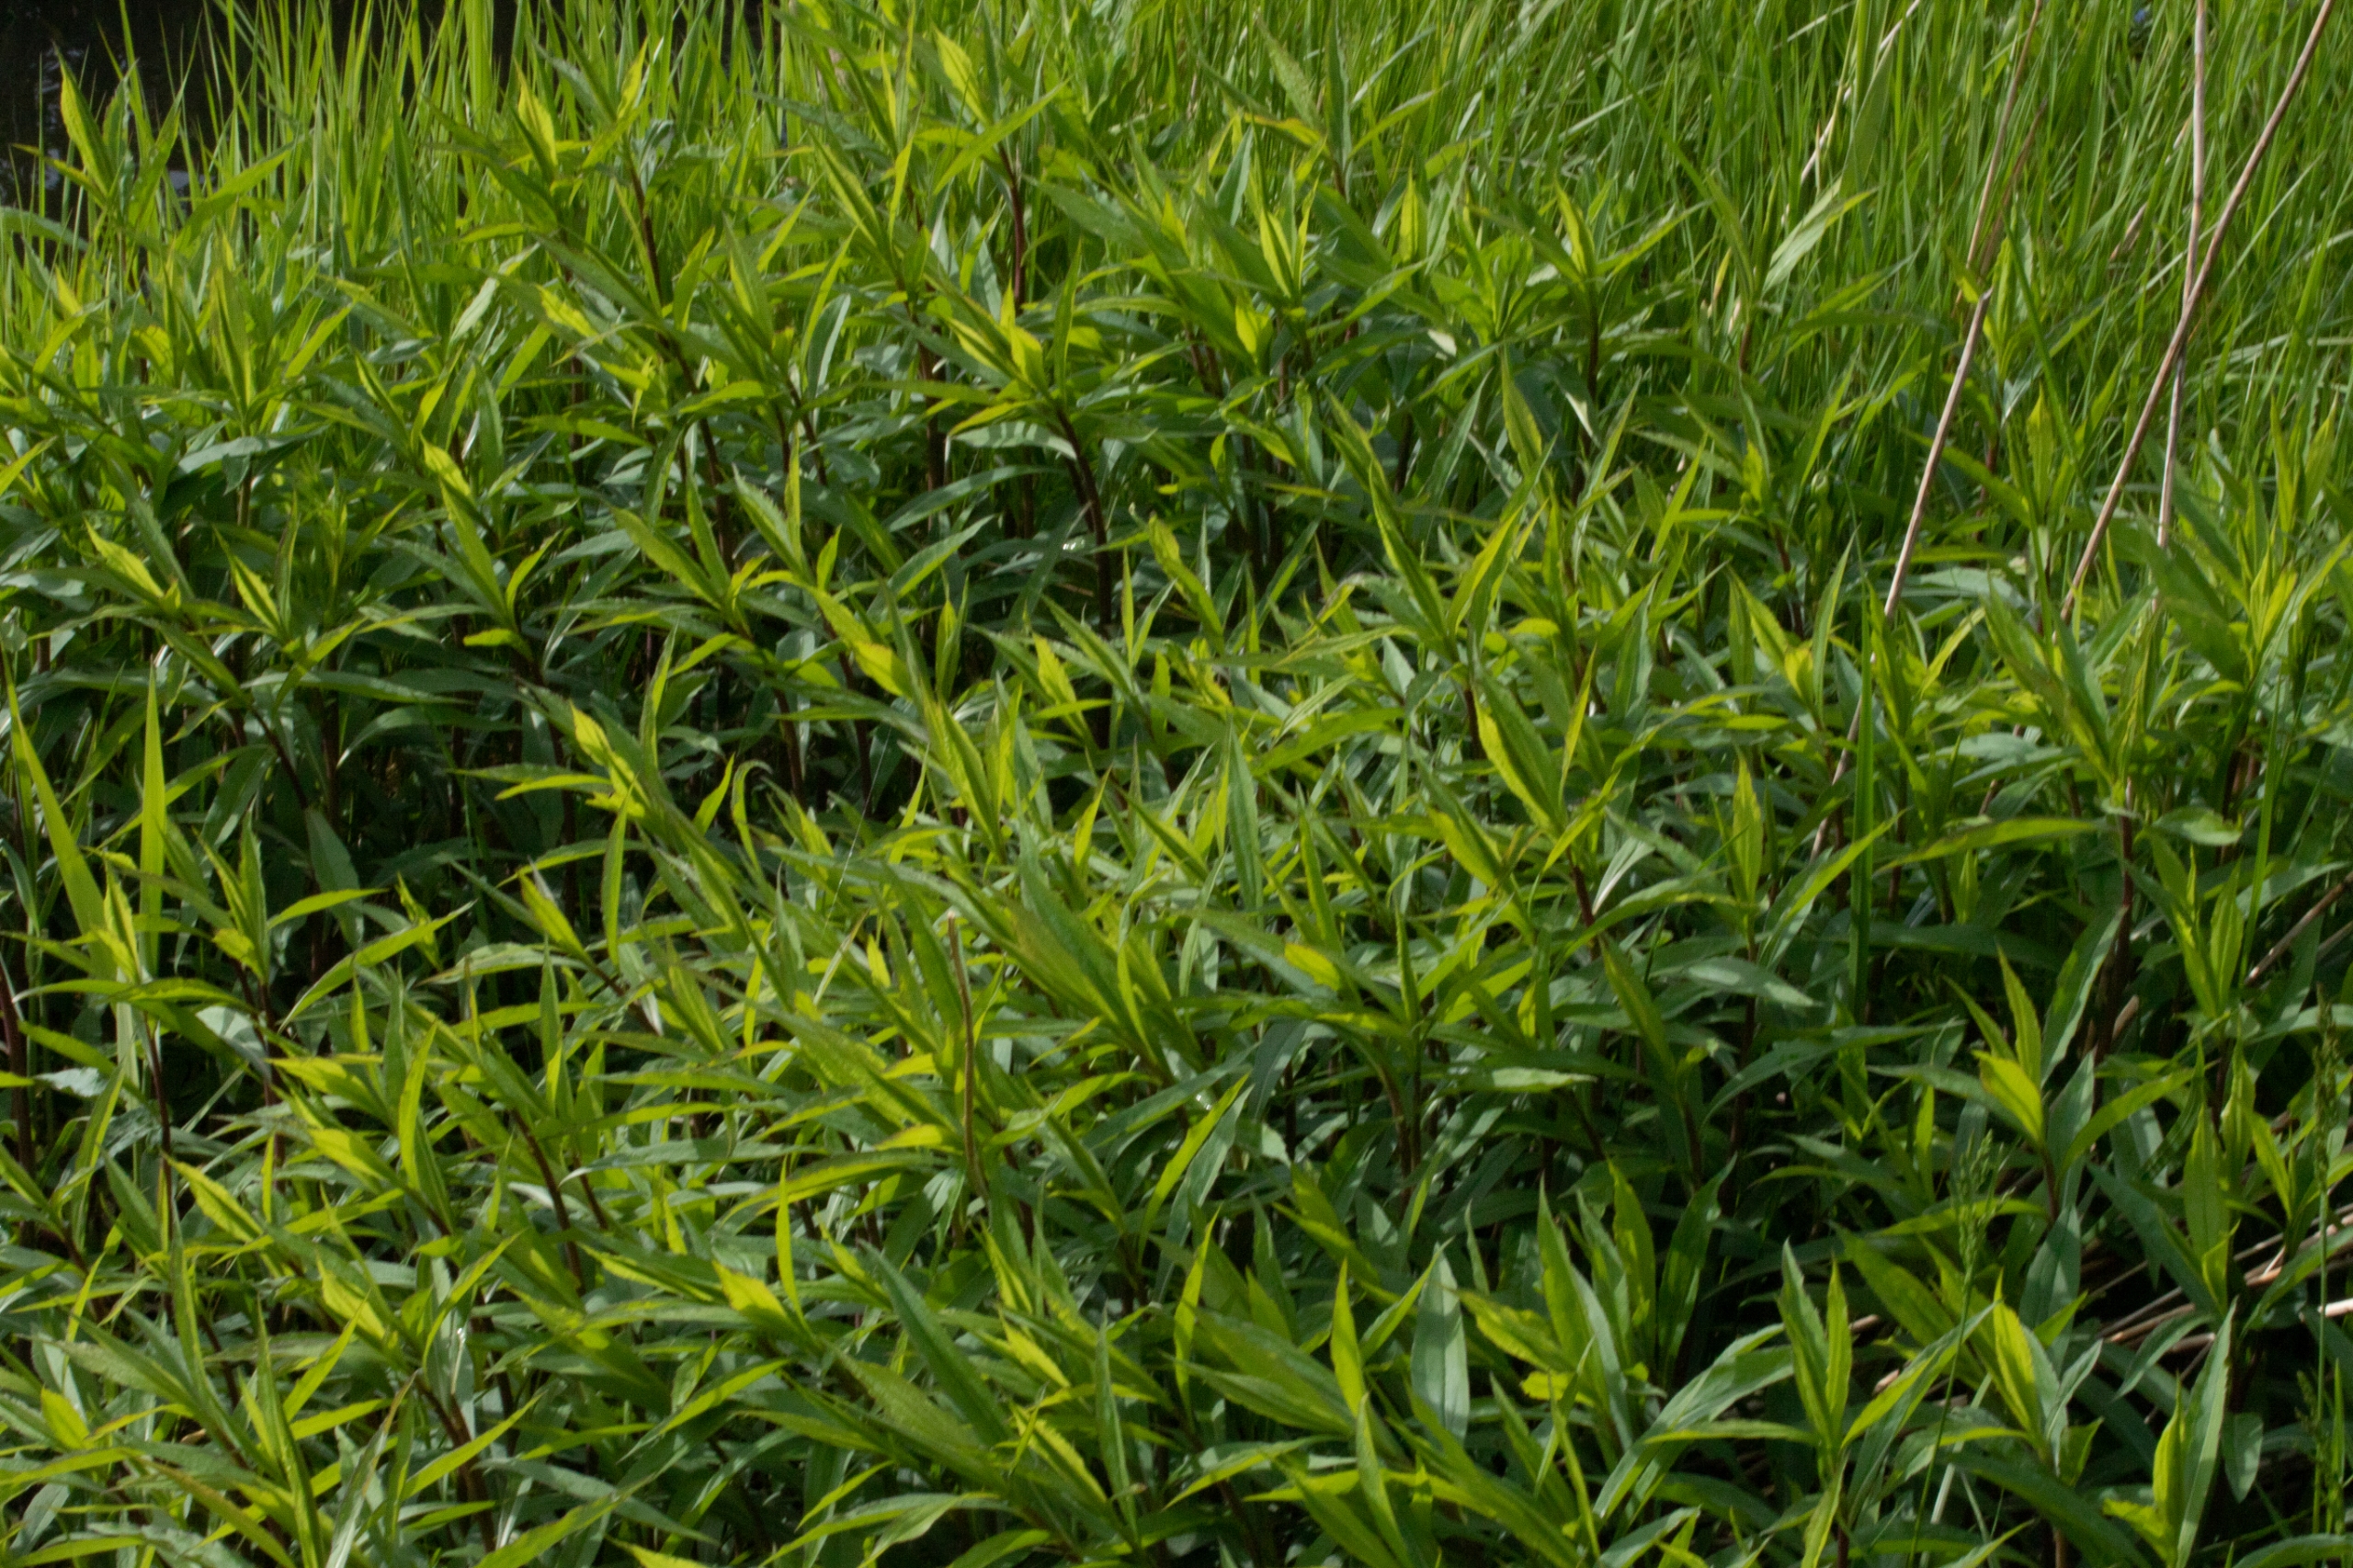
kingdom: Plantae
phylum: Tracheophyta
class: Magnoliopsida
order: Asterales
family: Asteraceae
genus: Solidago
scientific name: Solidago
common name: Gyldenrisslægten
